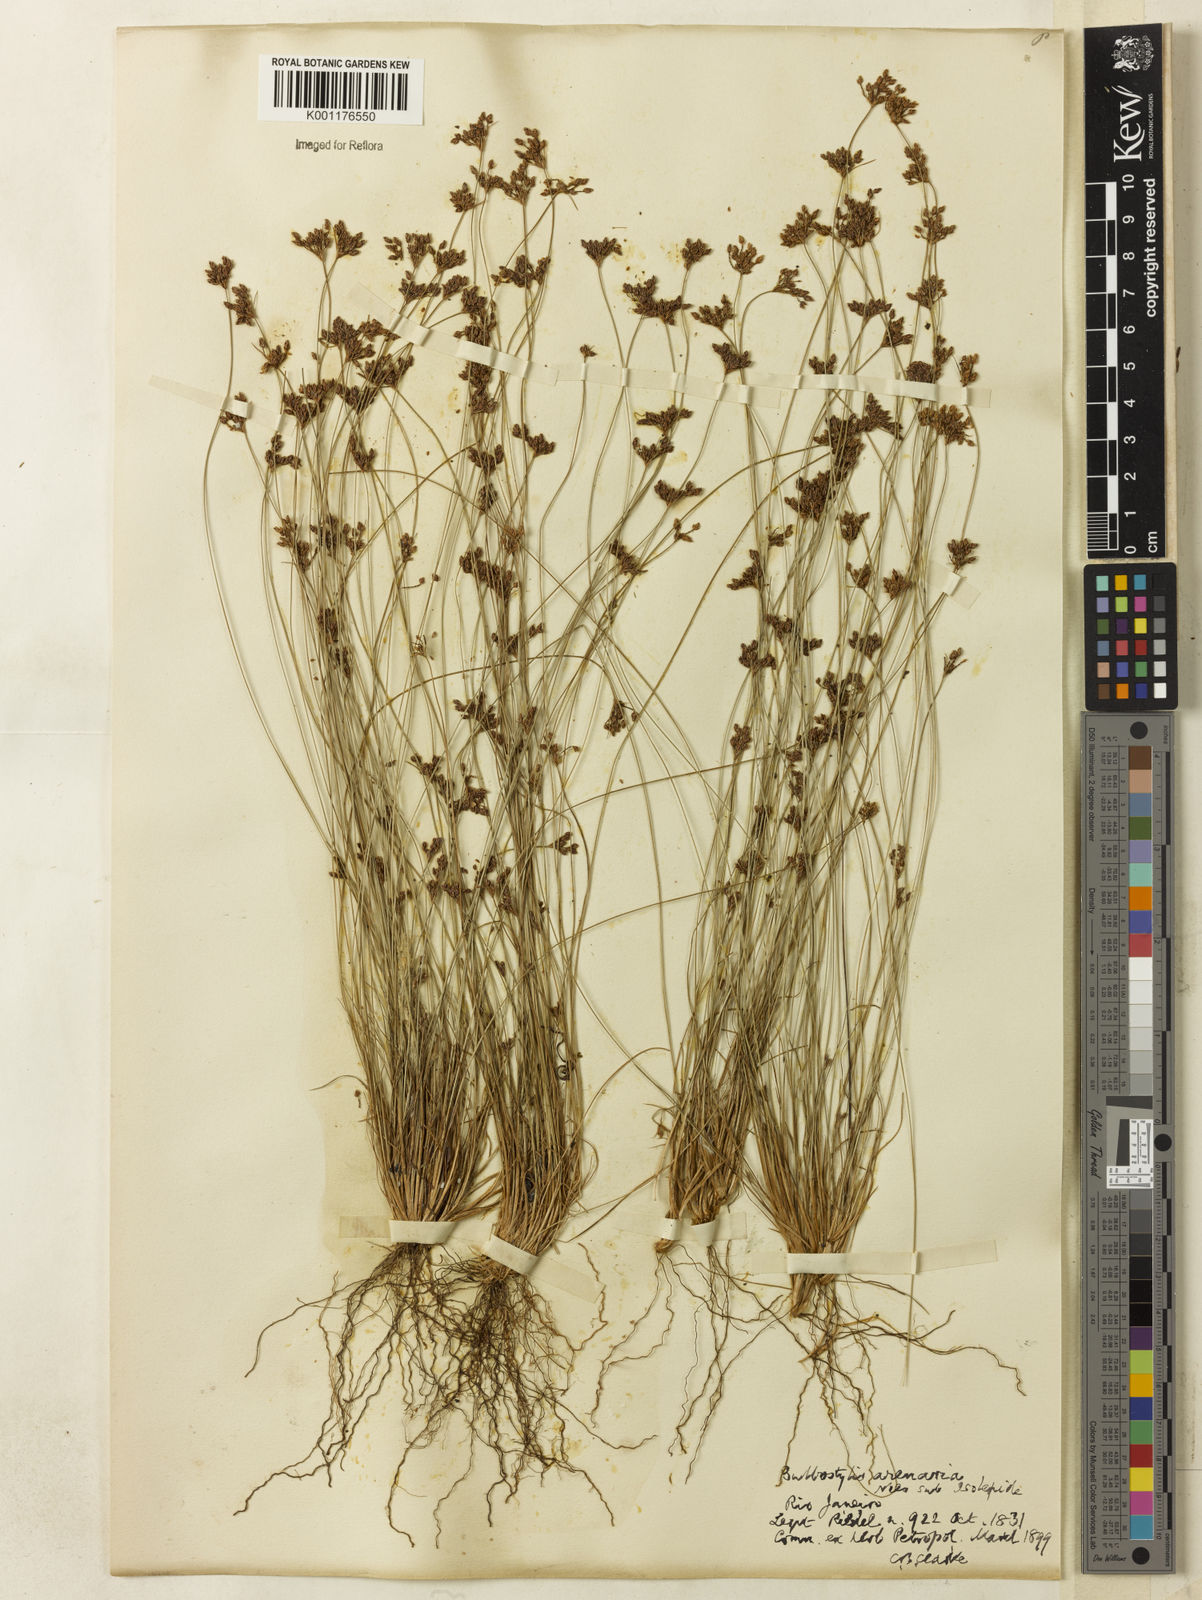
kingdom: Plantae
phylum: Tracheophyta
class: Liliopsida
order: Poales
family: Cyperaceae
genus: Bulbostylis
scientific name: Bulbostylis juncoides
